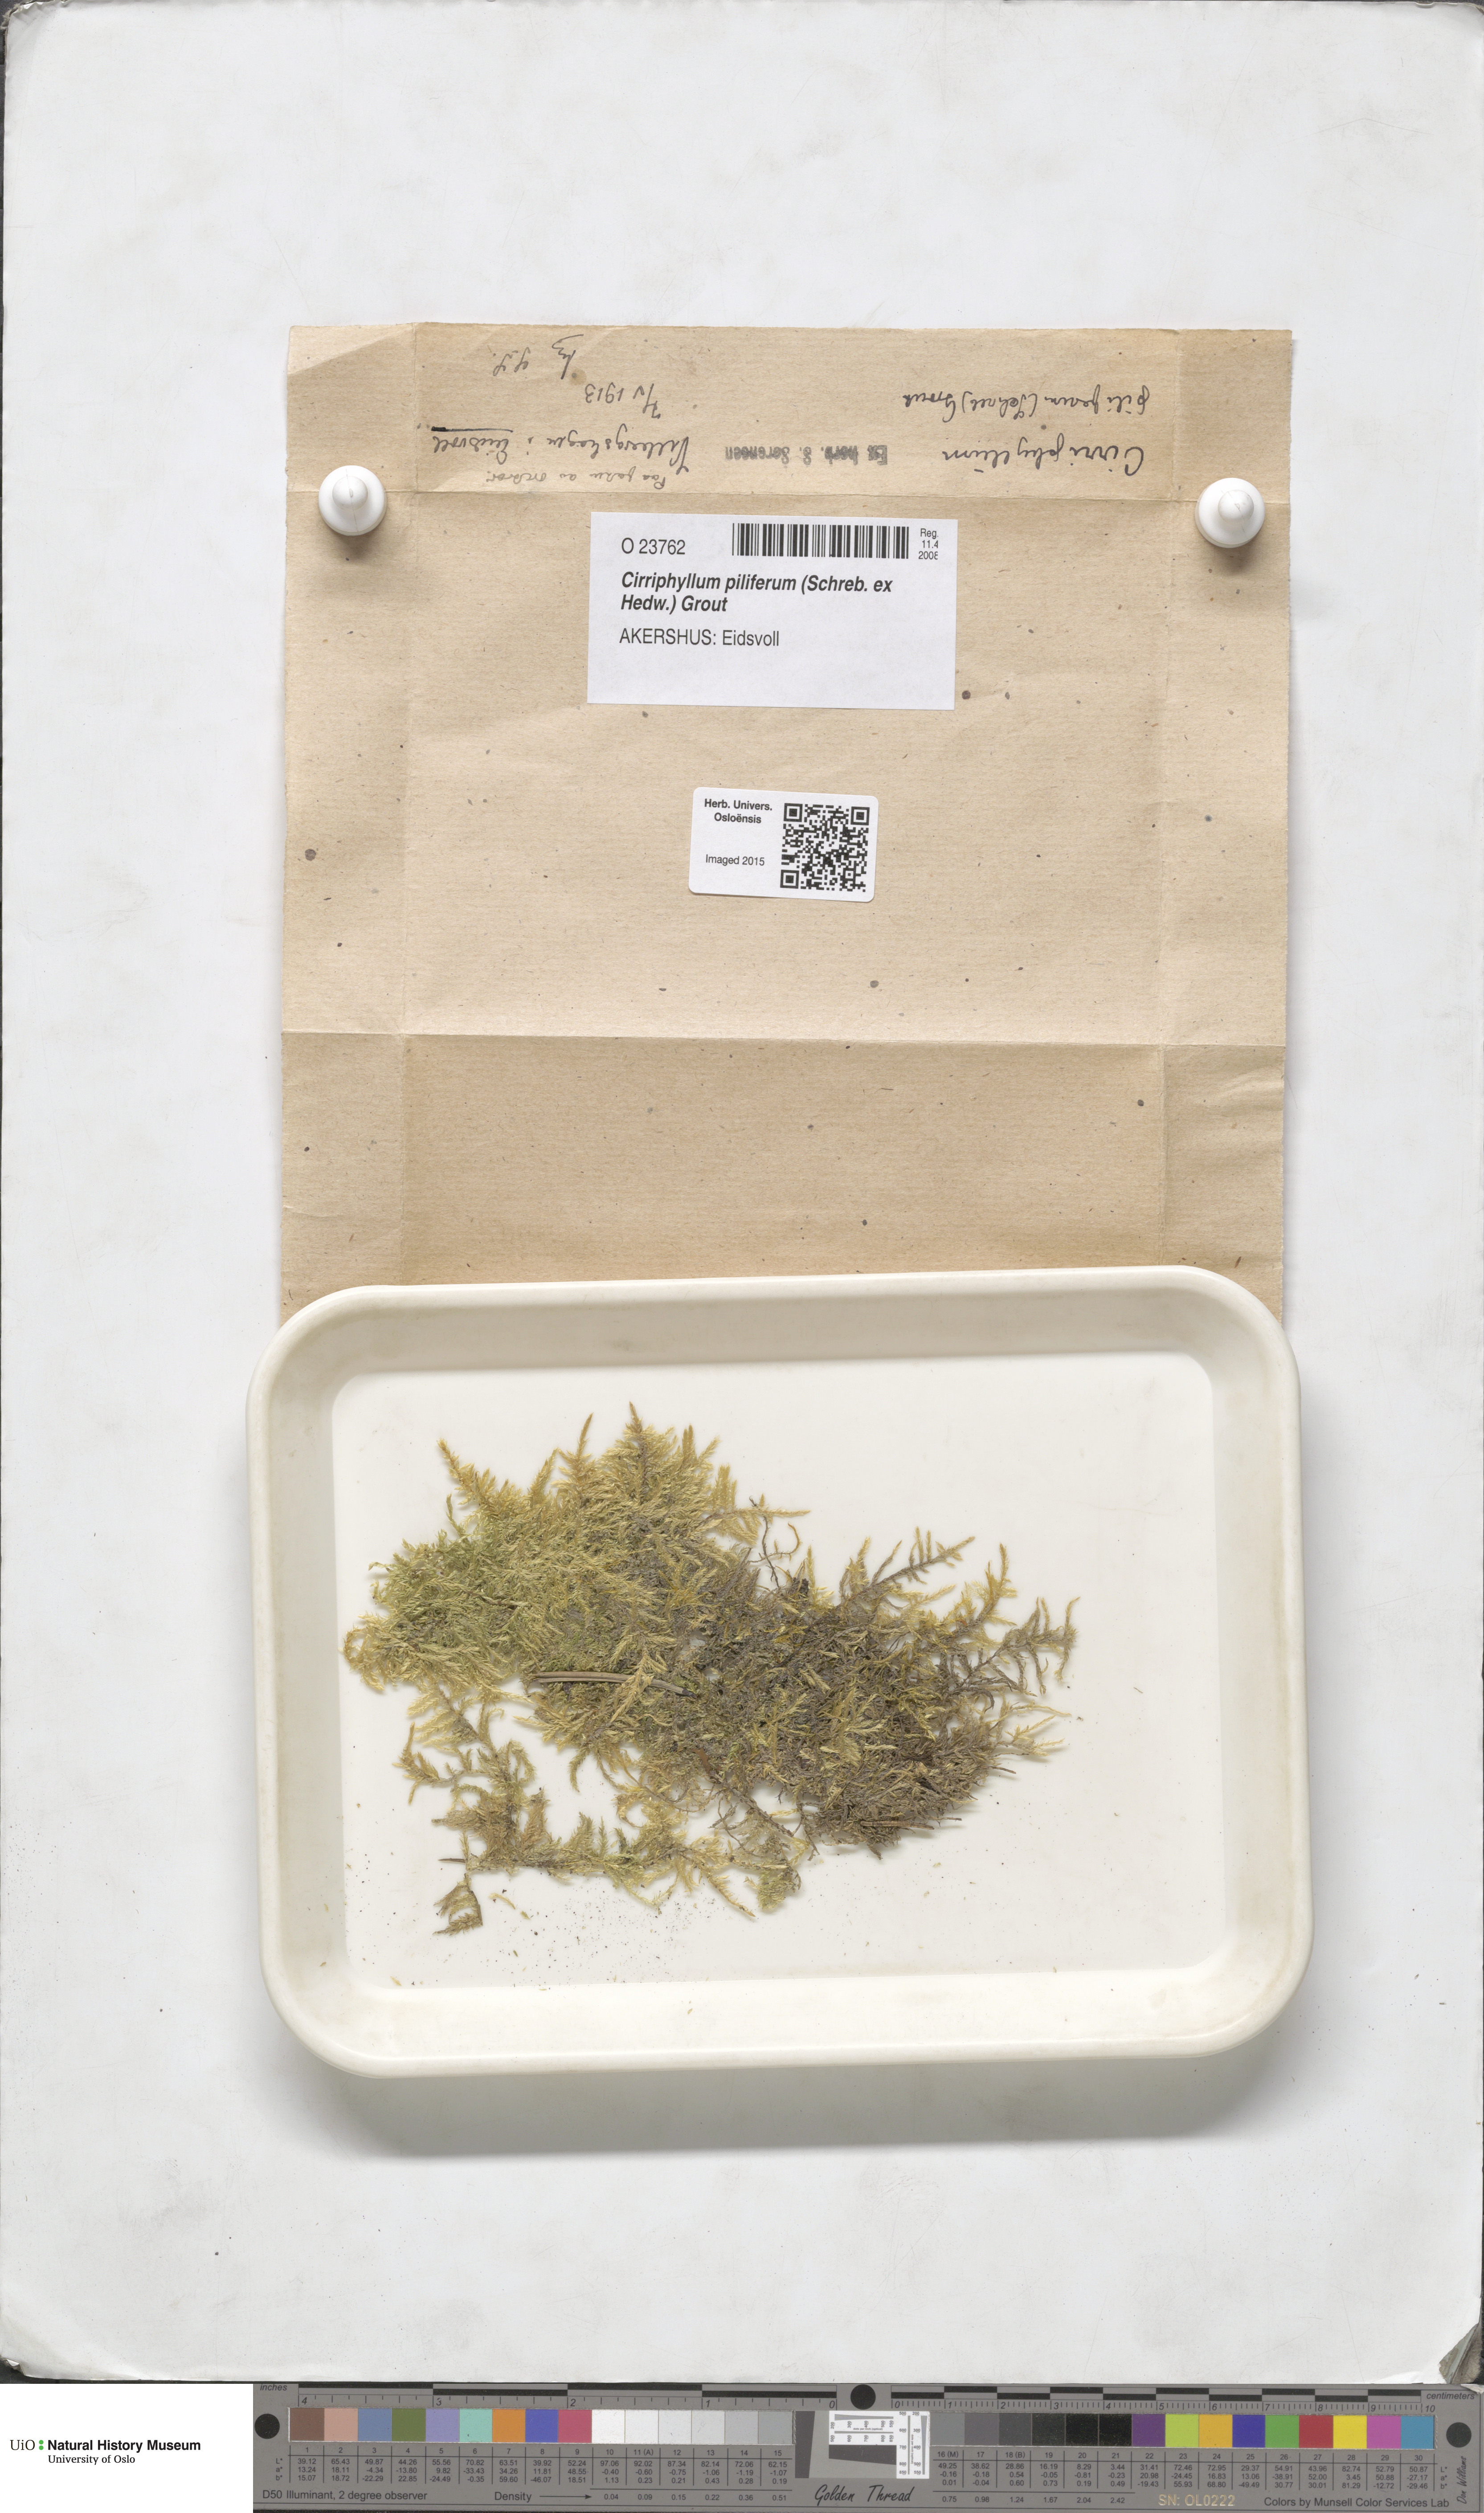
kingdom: Plantae
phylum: Bryophyta
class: Bryopsida
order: Hypnales
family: Brachytheciaceae
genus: Cirriphyllum
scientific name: Cirriphyllum piliferum
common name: Hair-pointed moss
